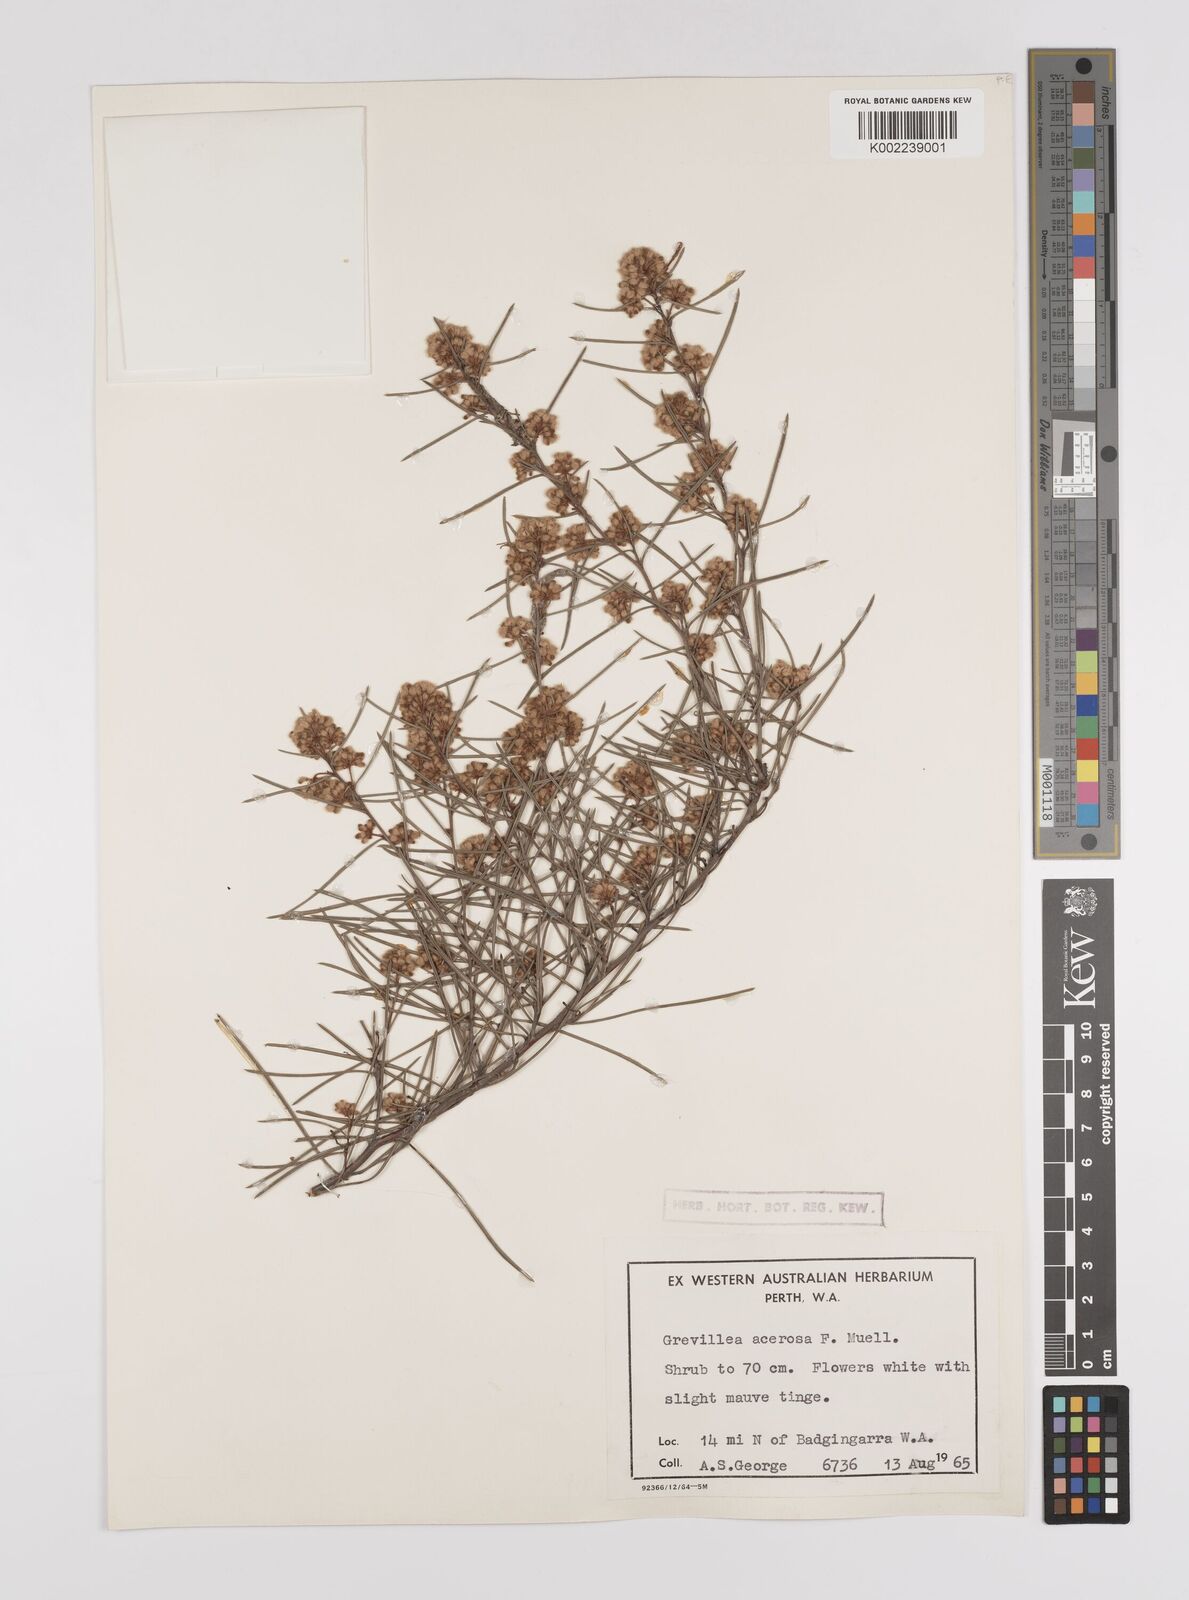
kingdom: Plantae
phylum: Tracheophyta
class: Magnoliopsida
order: Proteales
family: Proteaceae
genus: Grevillea
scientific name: Grevillea umbellulata
